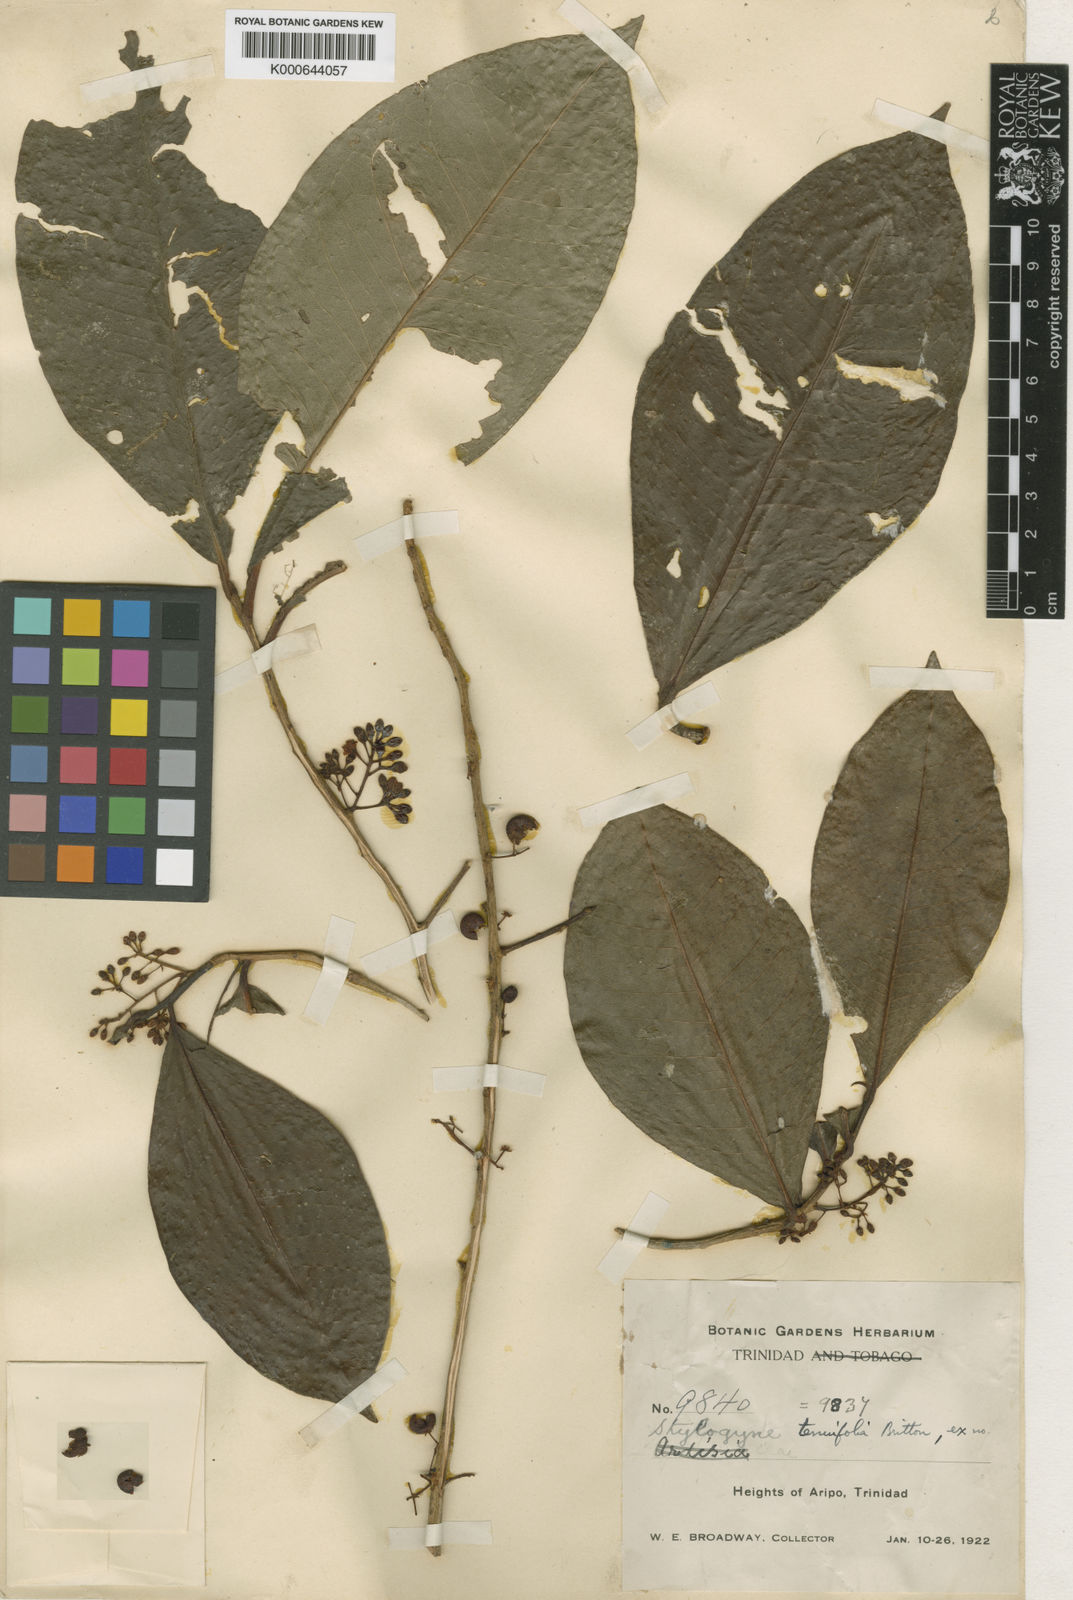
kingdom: Plantae
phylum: Tracheophyta
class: Magnoliopsida
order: Ericales
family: Primulaceae
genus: Stylogyne
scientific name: Stylogyne lateriflora
